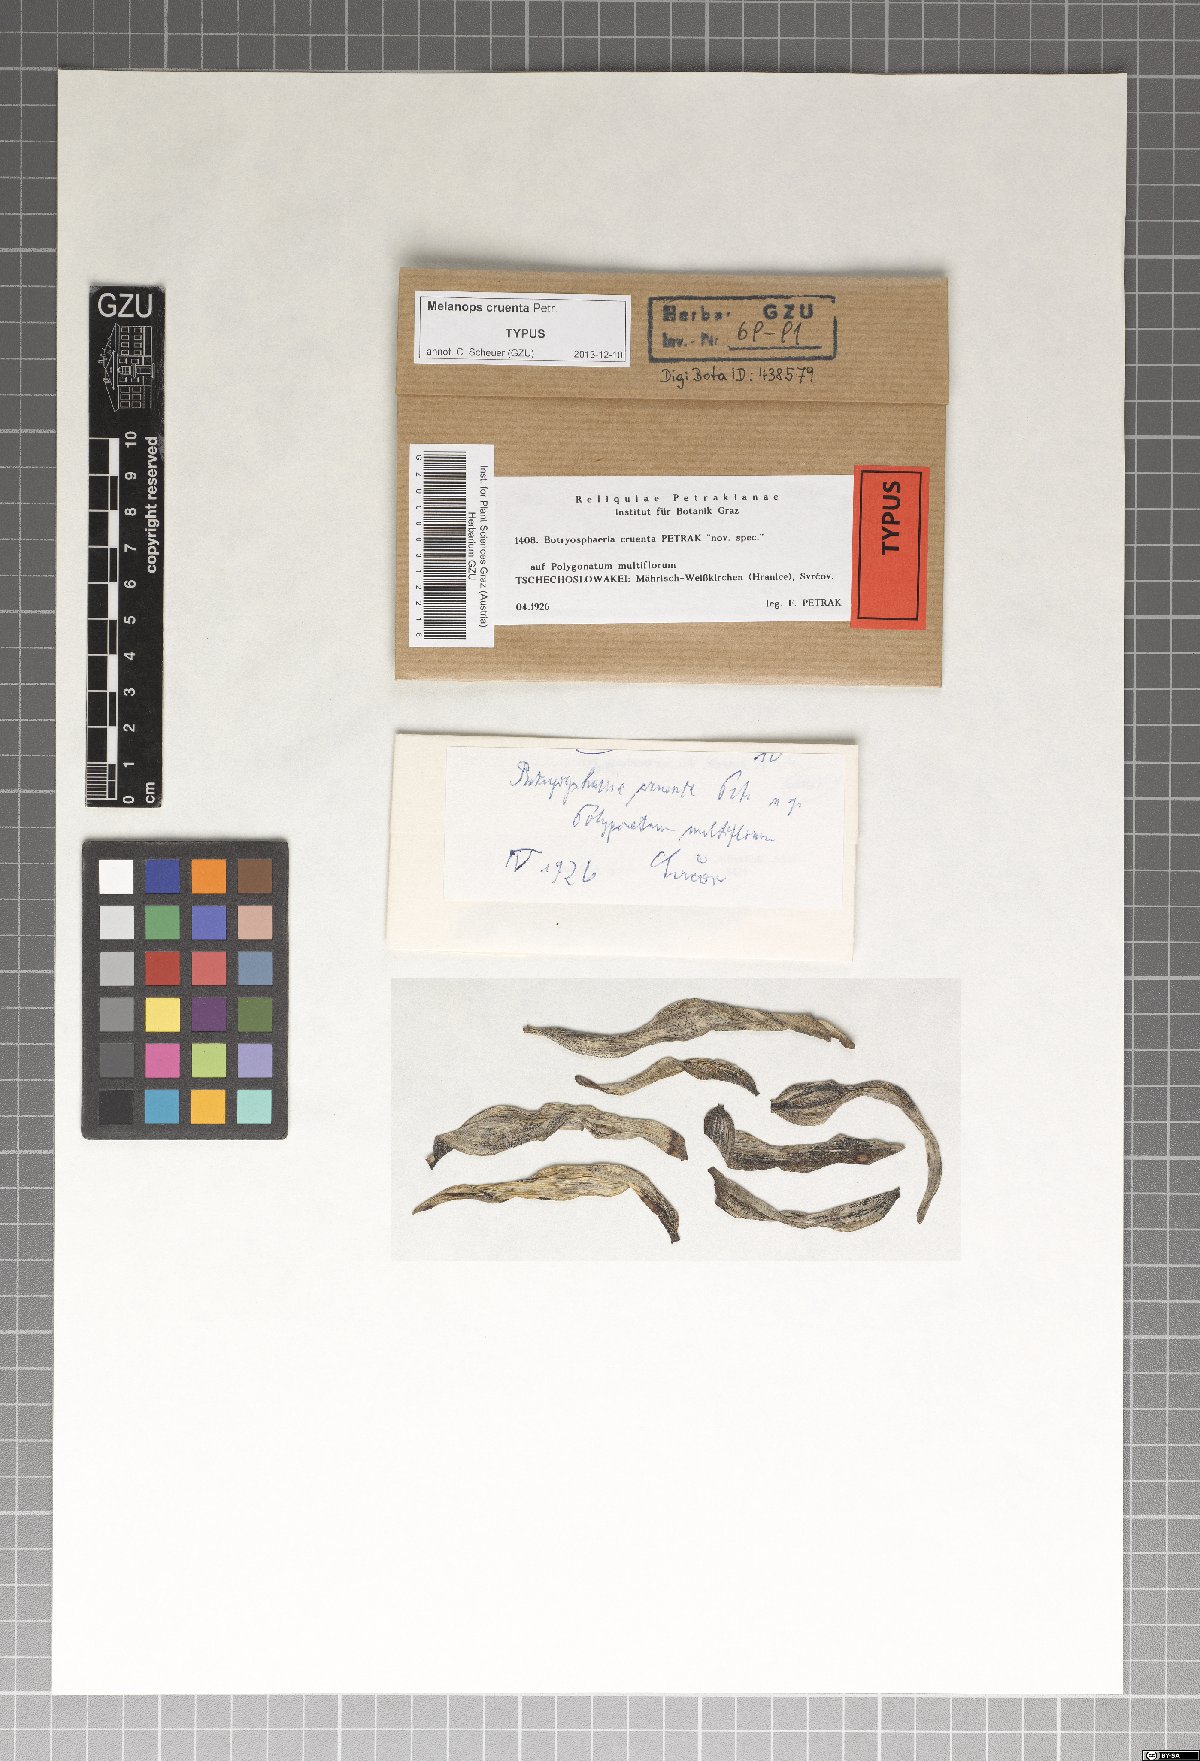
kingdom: Fungi
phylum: Ascomycota
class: Dothideomycetes
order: Botryosphaeriales
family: Botryosphaeriaceae
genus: Neofusicoccum
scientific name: Neofusicoccum cruentum ter
